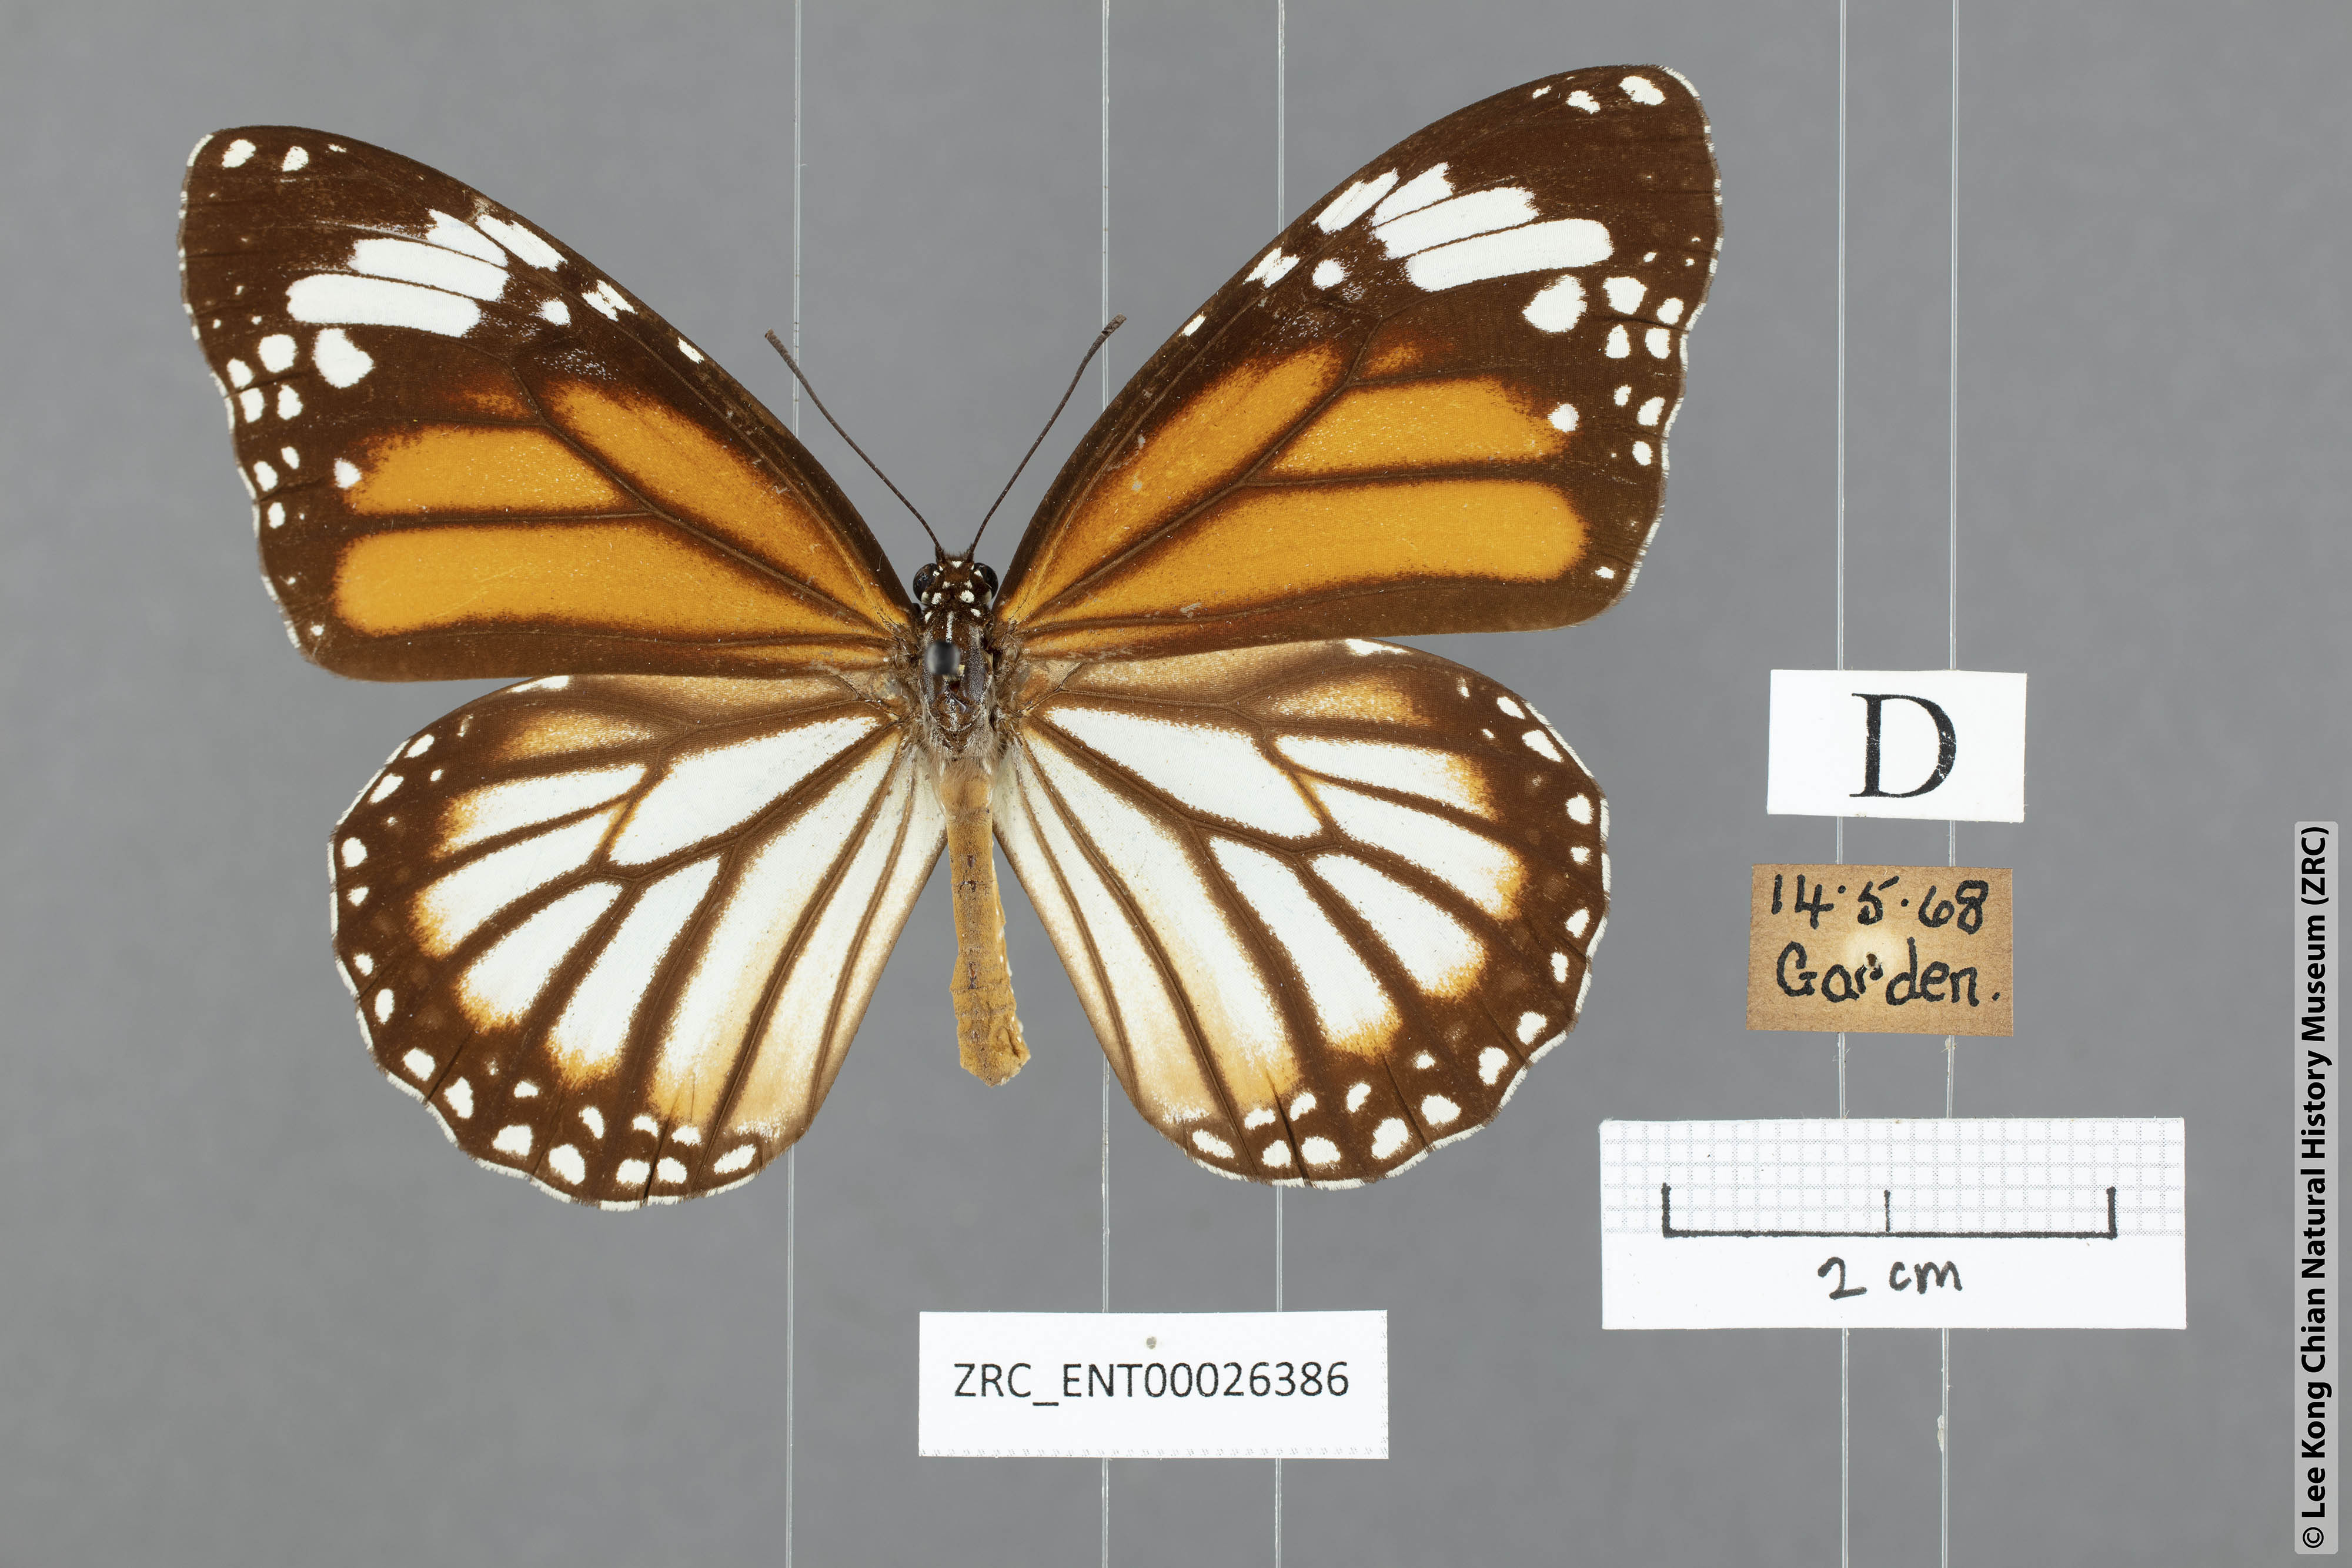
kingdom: Animalia
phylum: Arthropoda
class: Insecta
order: Lepidoptera
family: Nymphalidae
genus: Danaus
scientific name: Danaus genutia
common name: Common tiger butterfly
